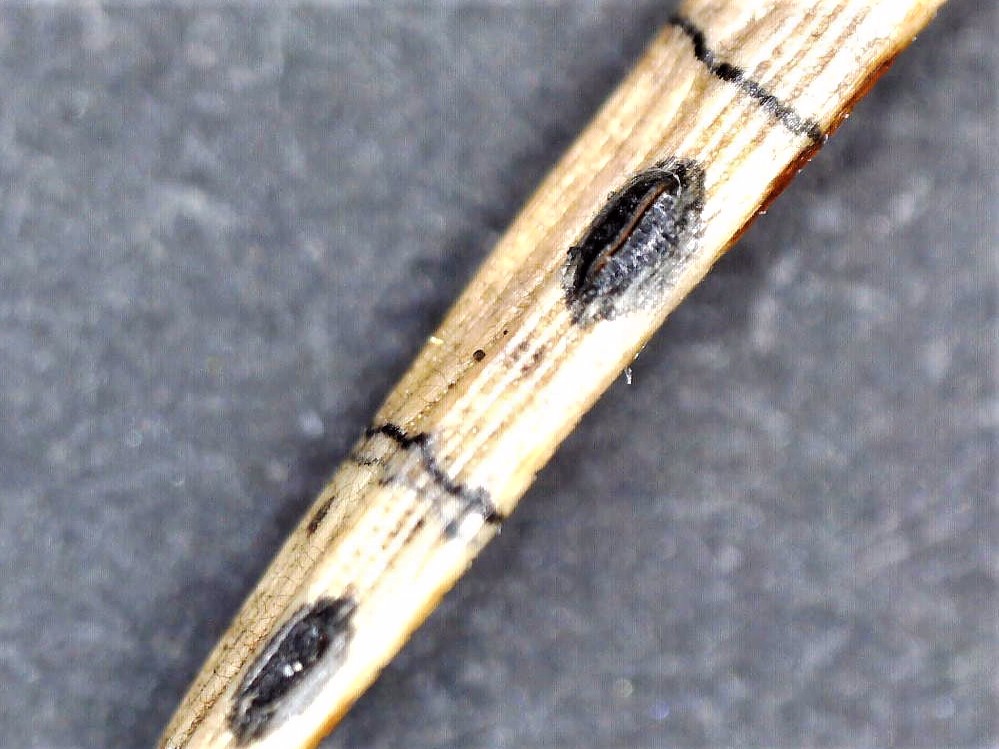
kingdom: Fungi
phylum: Ascomycota
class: Leotiomycetes
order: Rhytismatales
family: Rhytismataceae
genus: Lophodermium
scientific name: Lophodermium pinastri
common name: fyrre-fureplet
